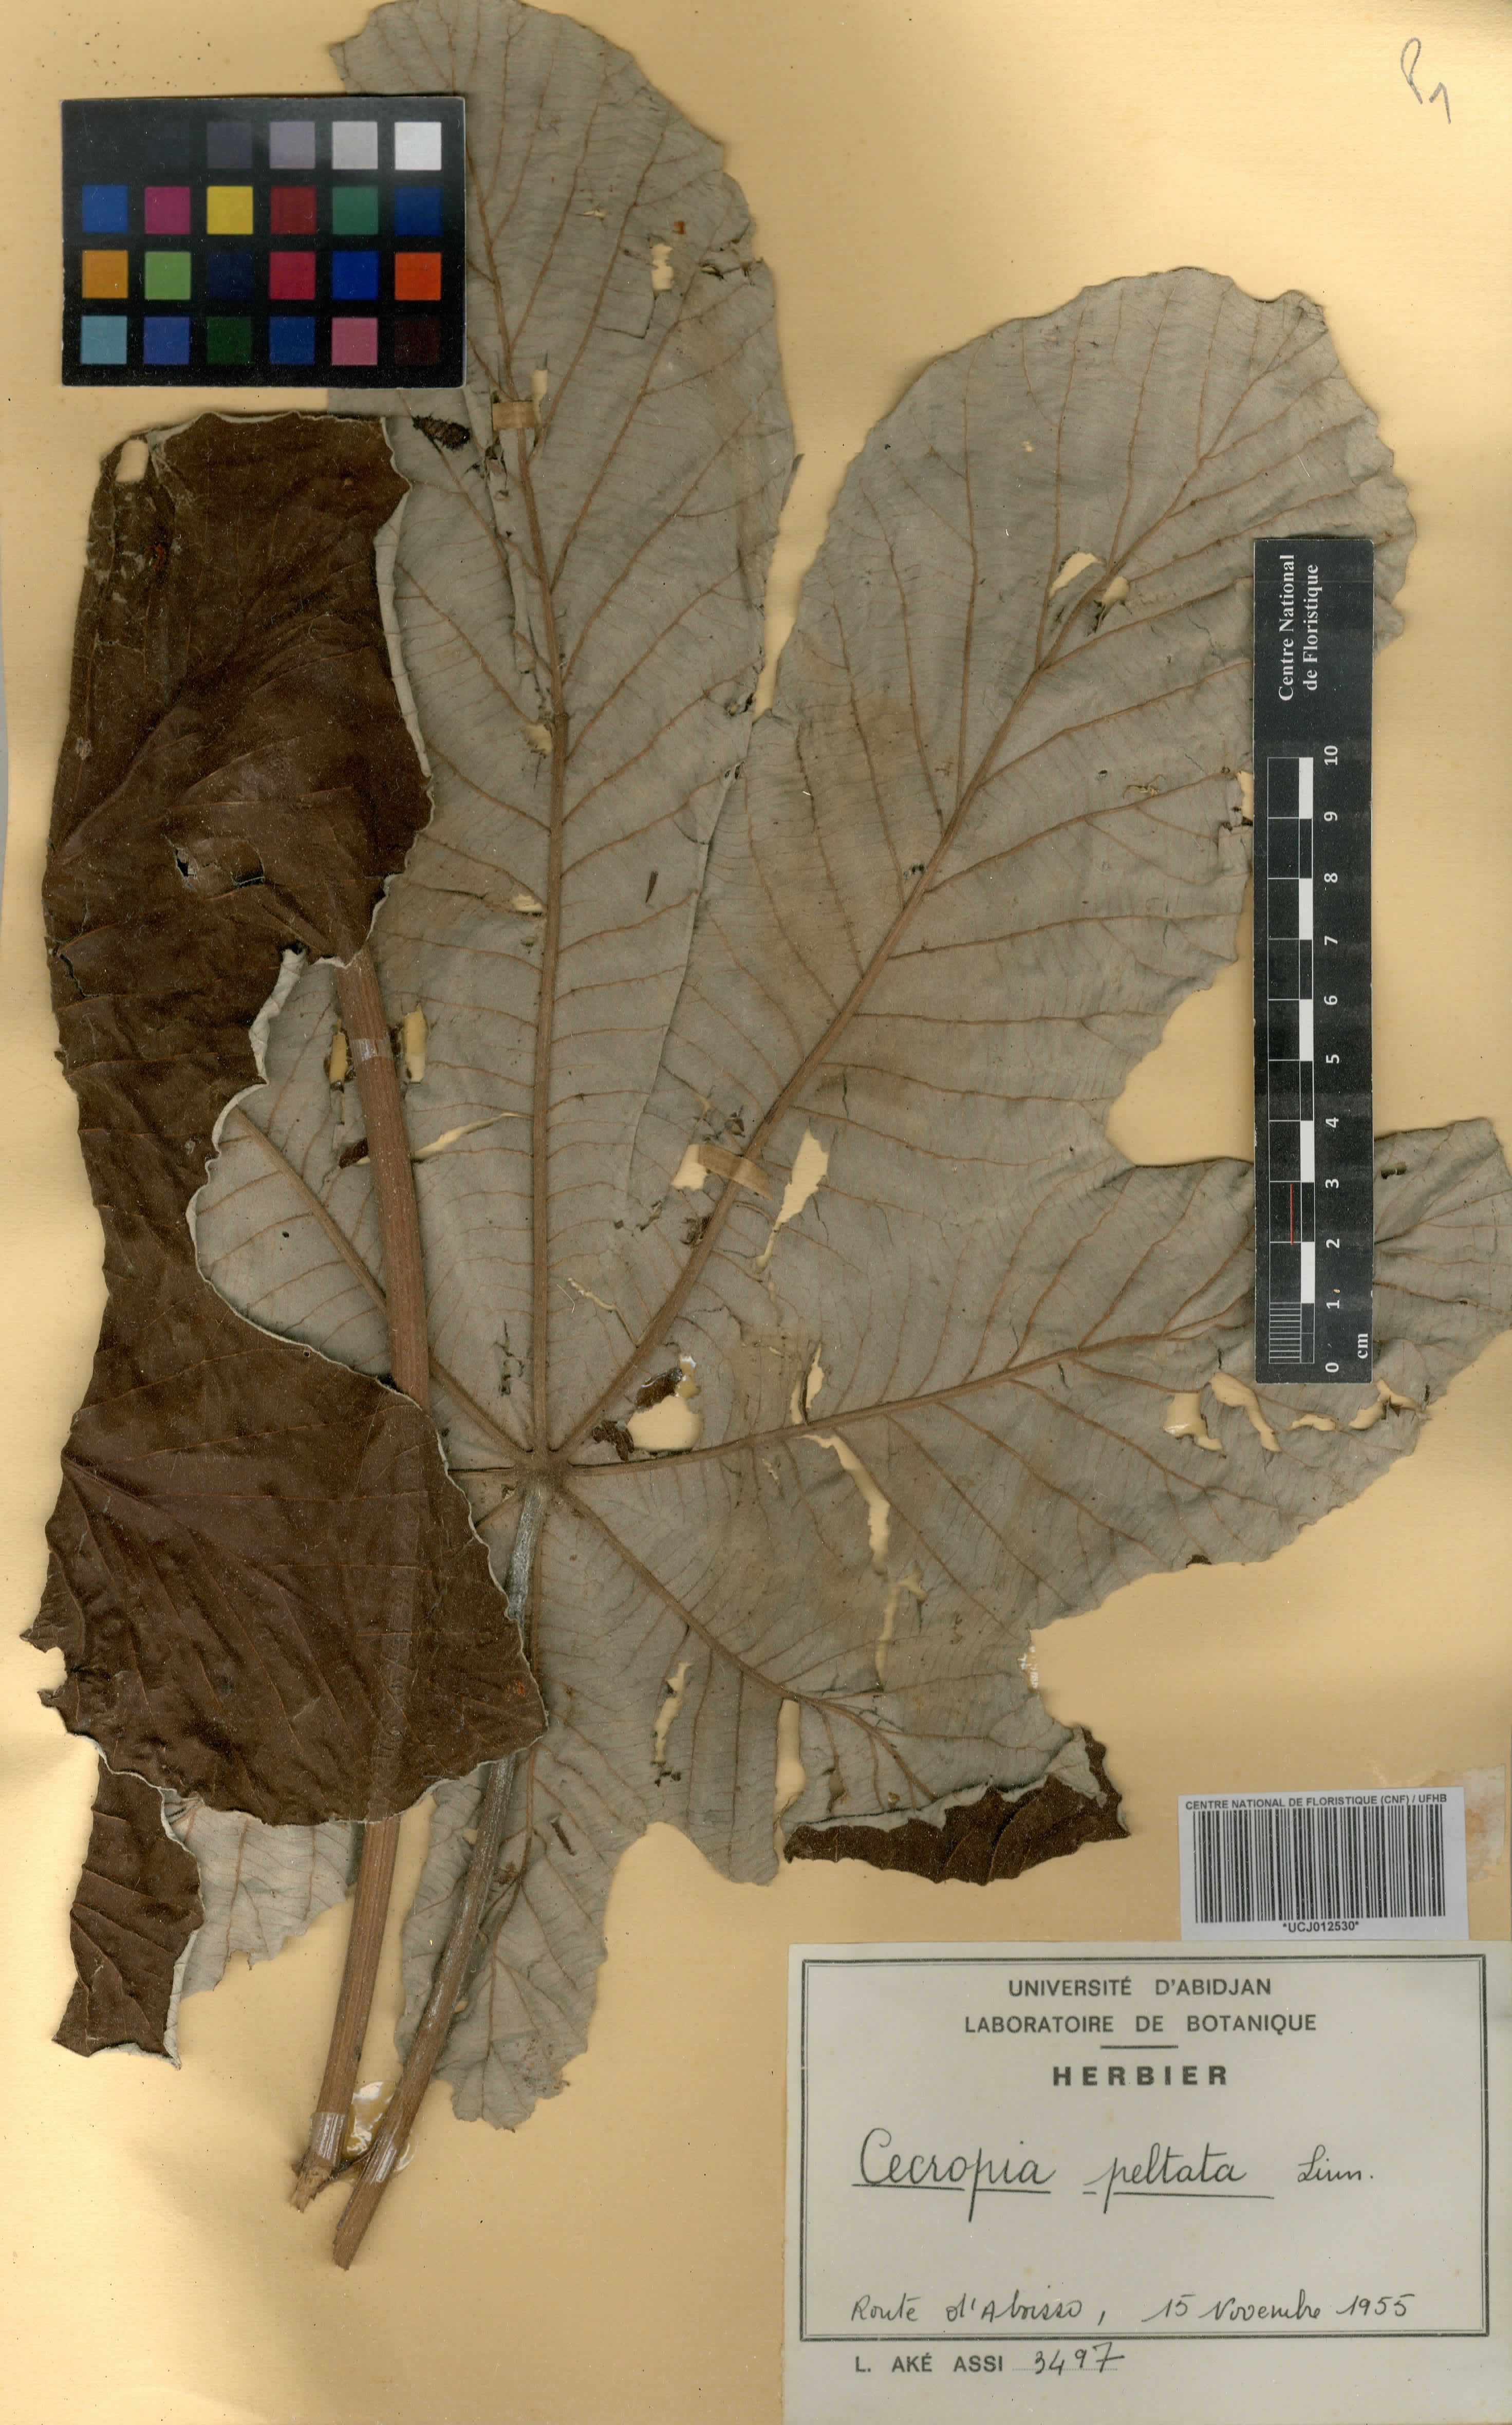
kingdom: Plantae
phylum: Tracheophyta
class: Magnoliopsida
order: Rosales
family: Urticaceae
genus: Cecropia
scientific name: Cecropia peltata
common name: Trumpet-tree
